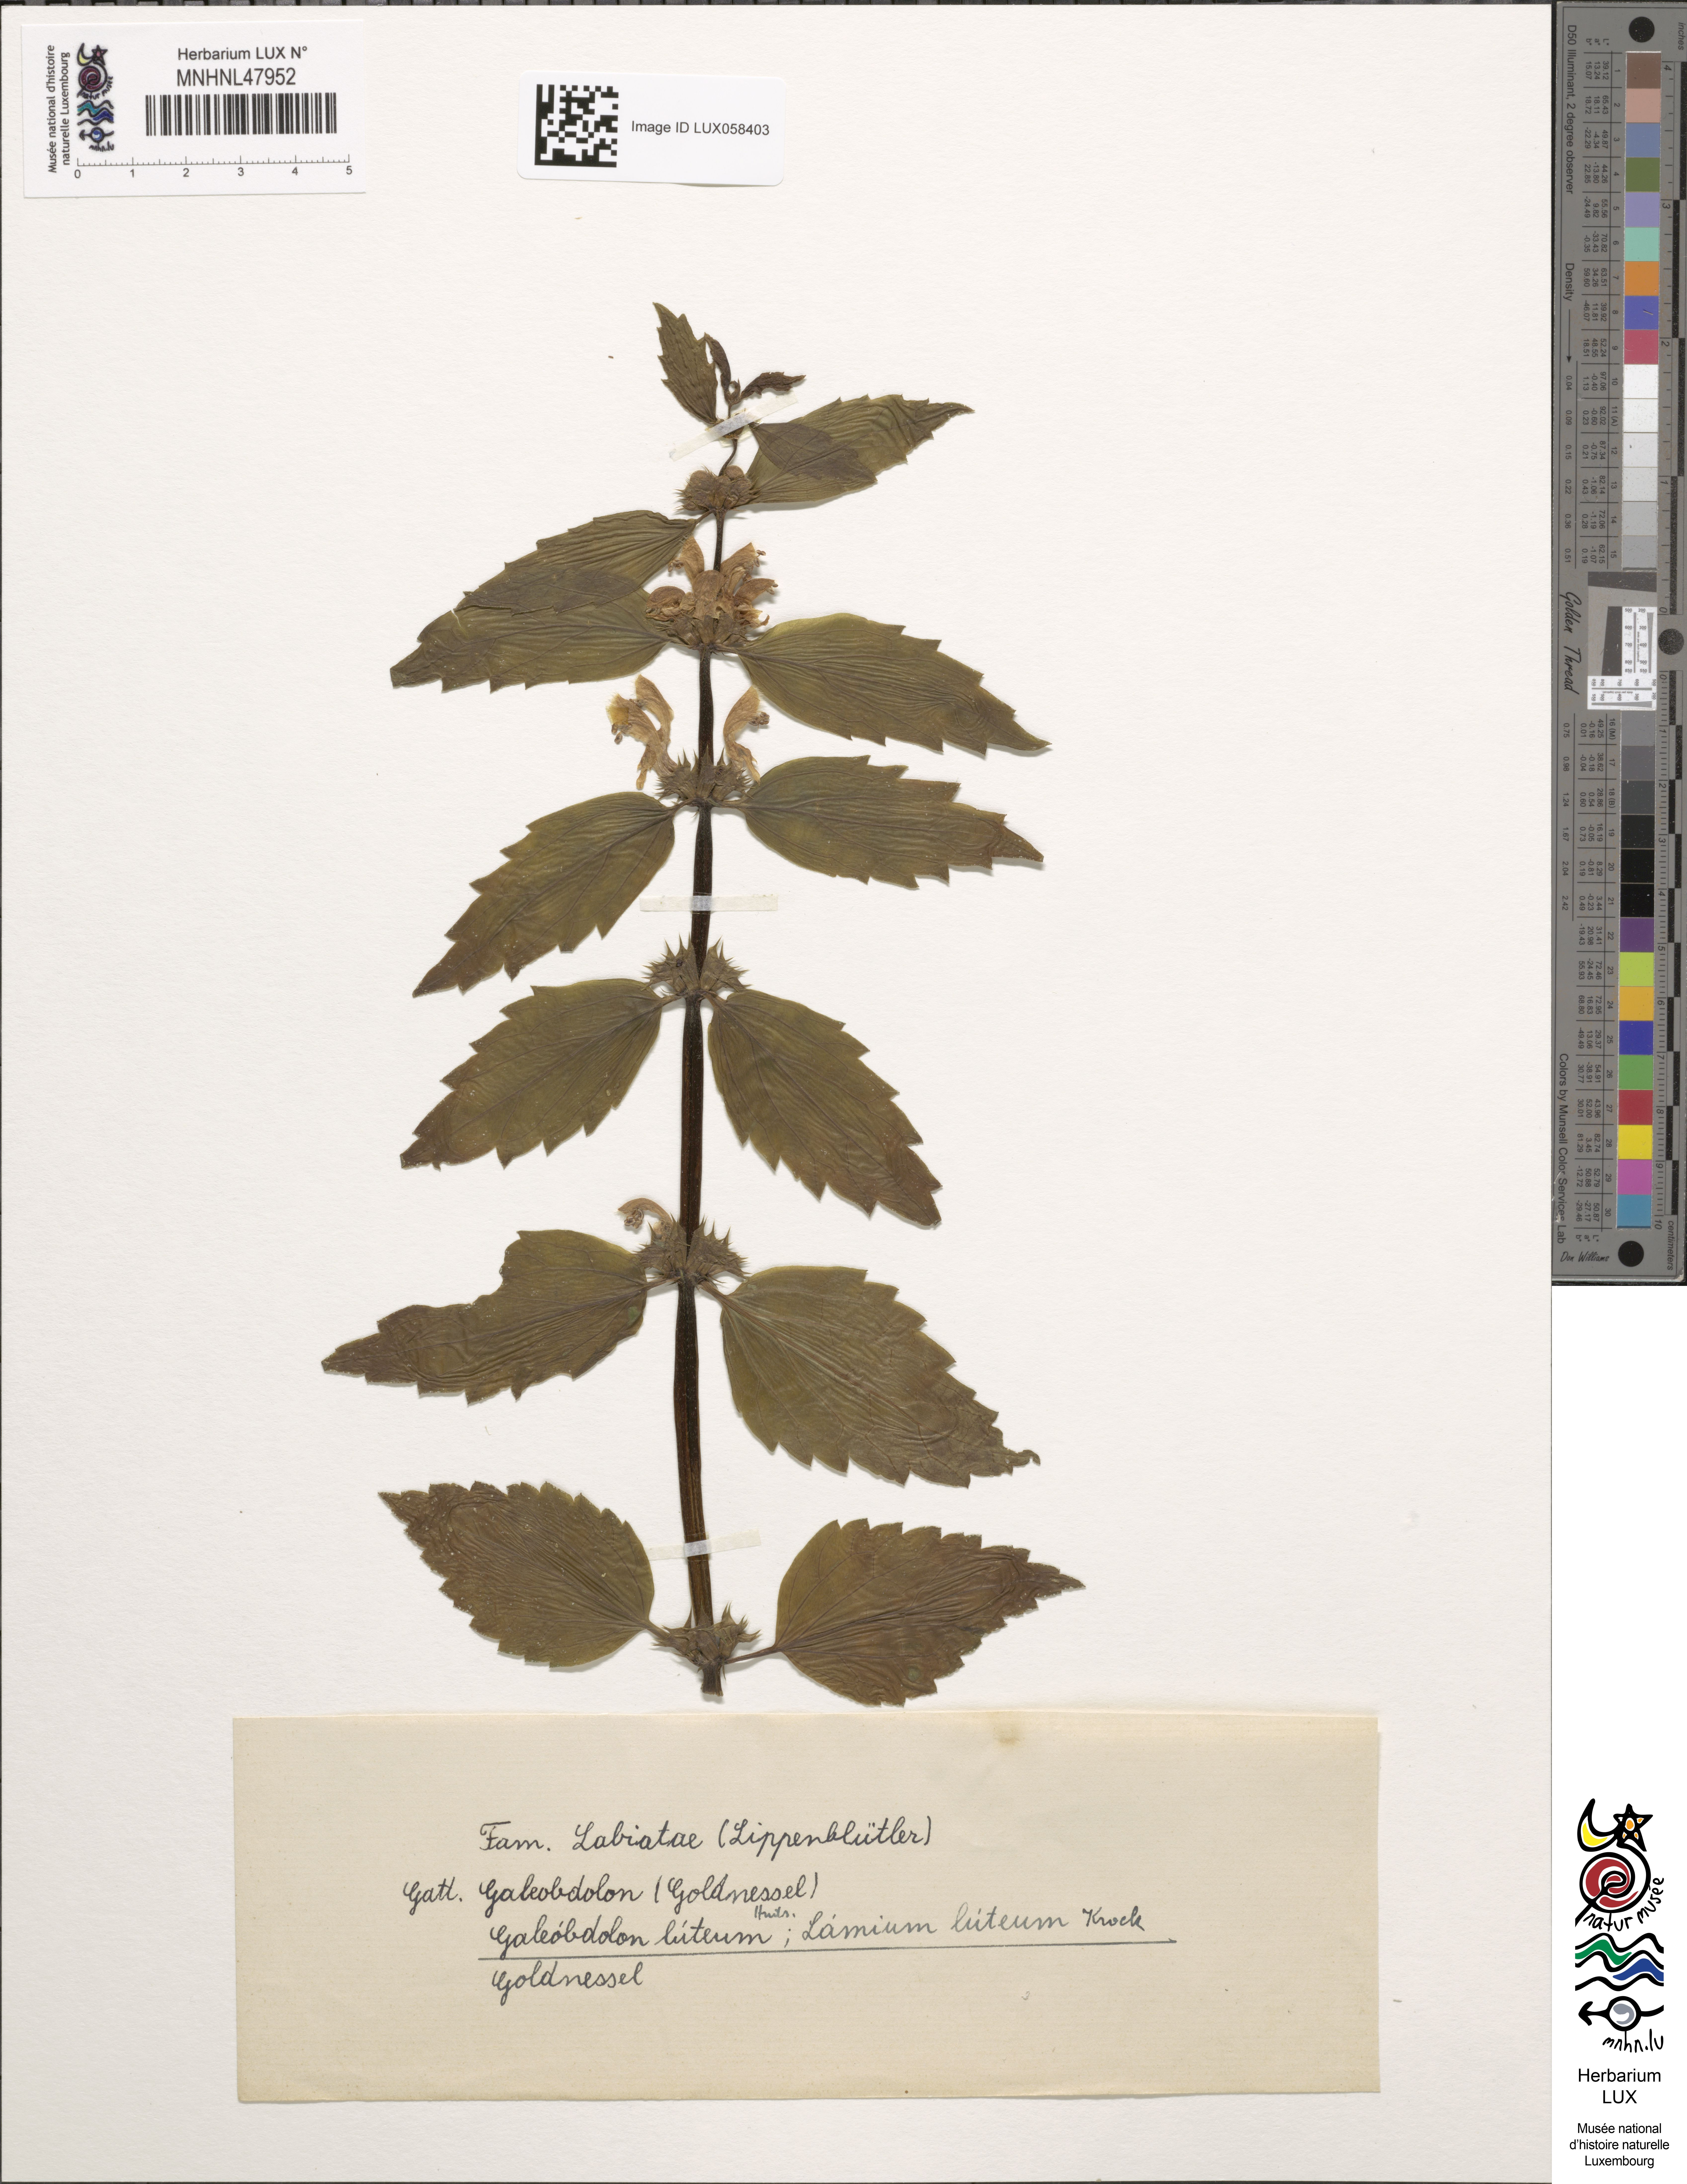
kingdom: Plantae
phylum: Tracheophyta
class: Magnoliopsida
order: Lamiales
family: Lamiaceae
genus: Lamium
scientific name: Lamium galeobdolon
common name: Yellow archangel
